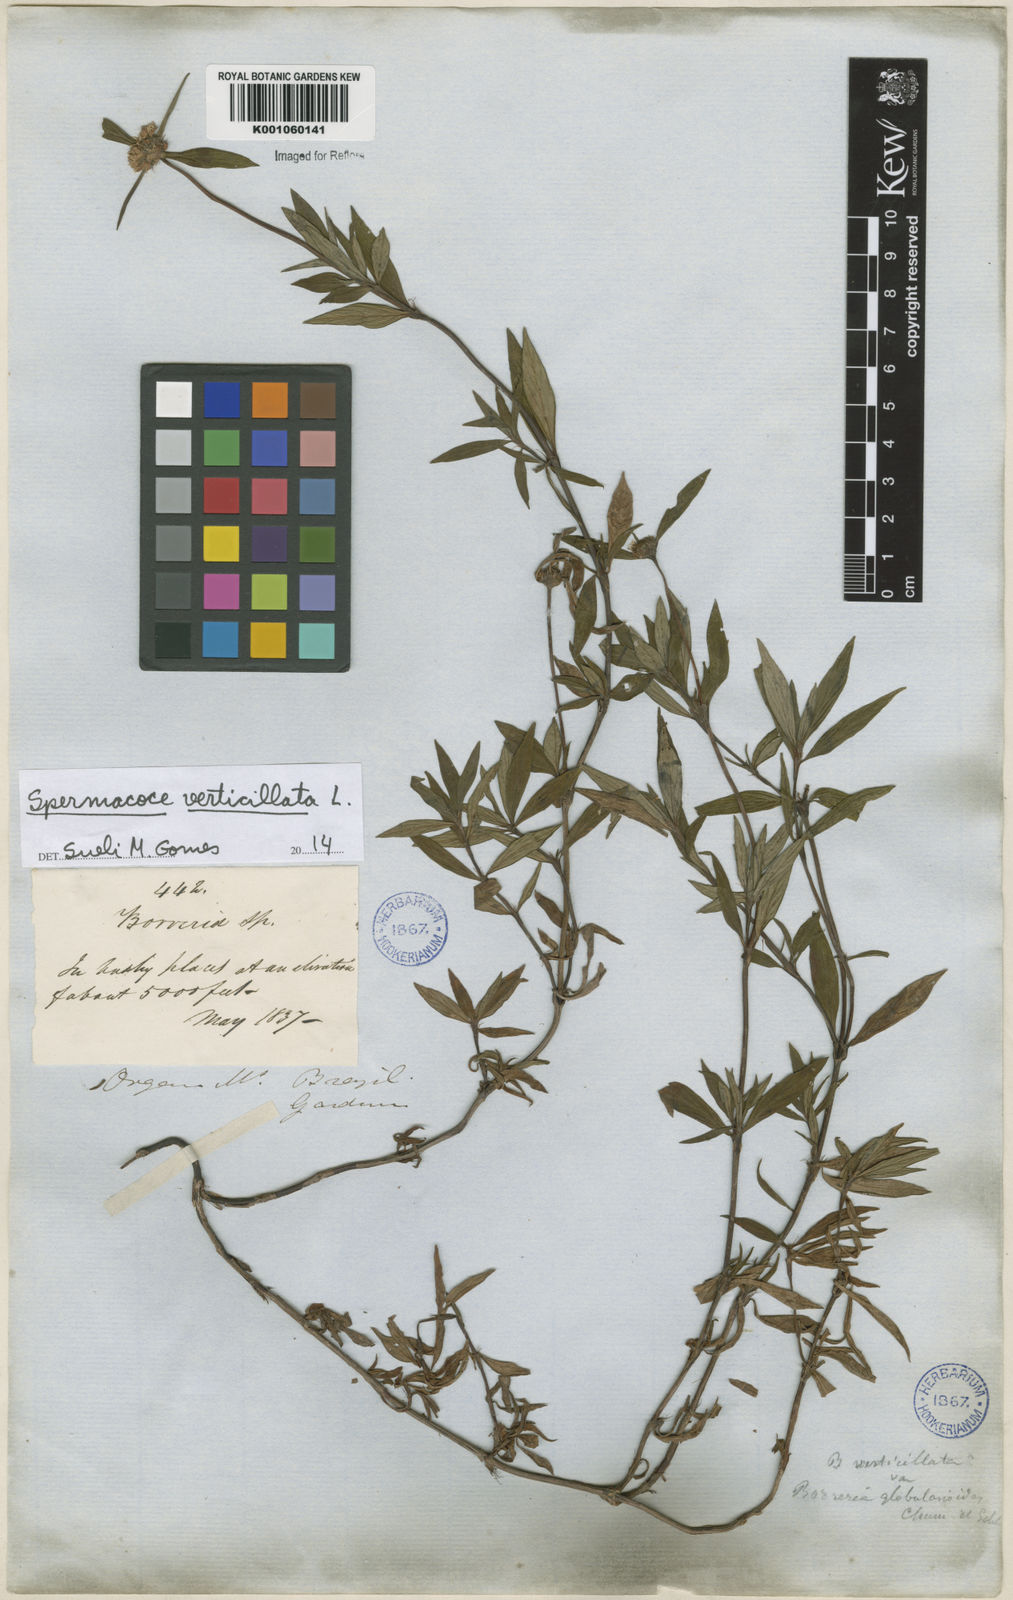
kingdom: Plantae
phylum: Tracheophyta
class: Magnoliopsida
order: Gentianales
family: Rubiaceae
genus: Spermacoce
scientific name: Spermacoce verticillata
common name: Shrubby false buttonweed
